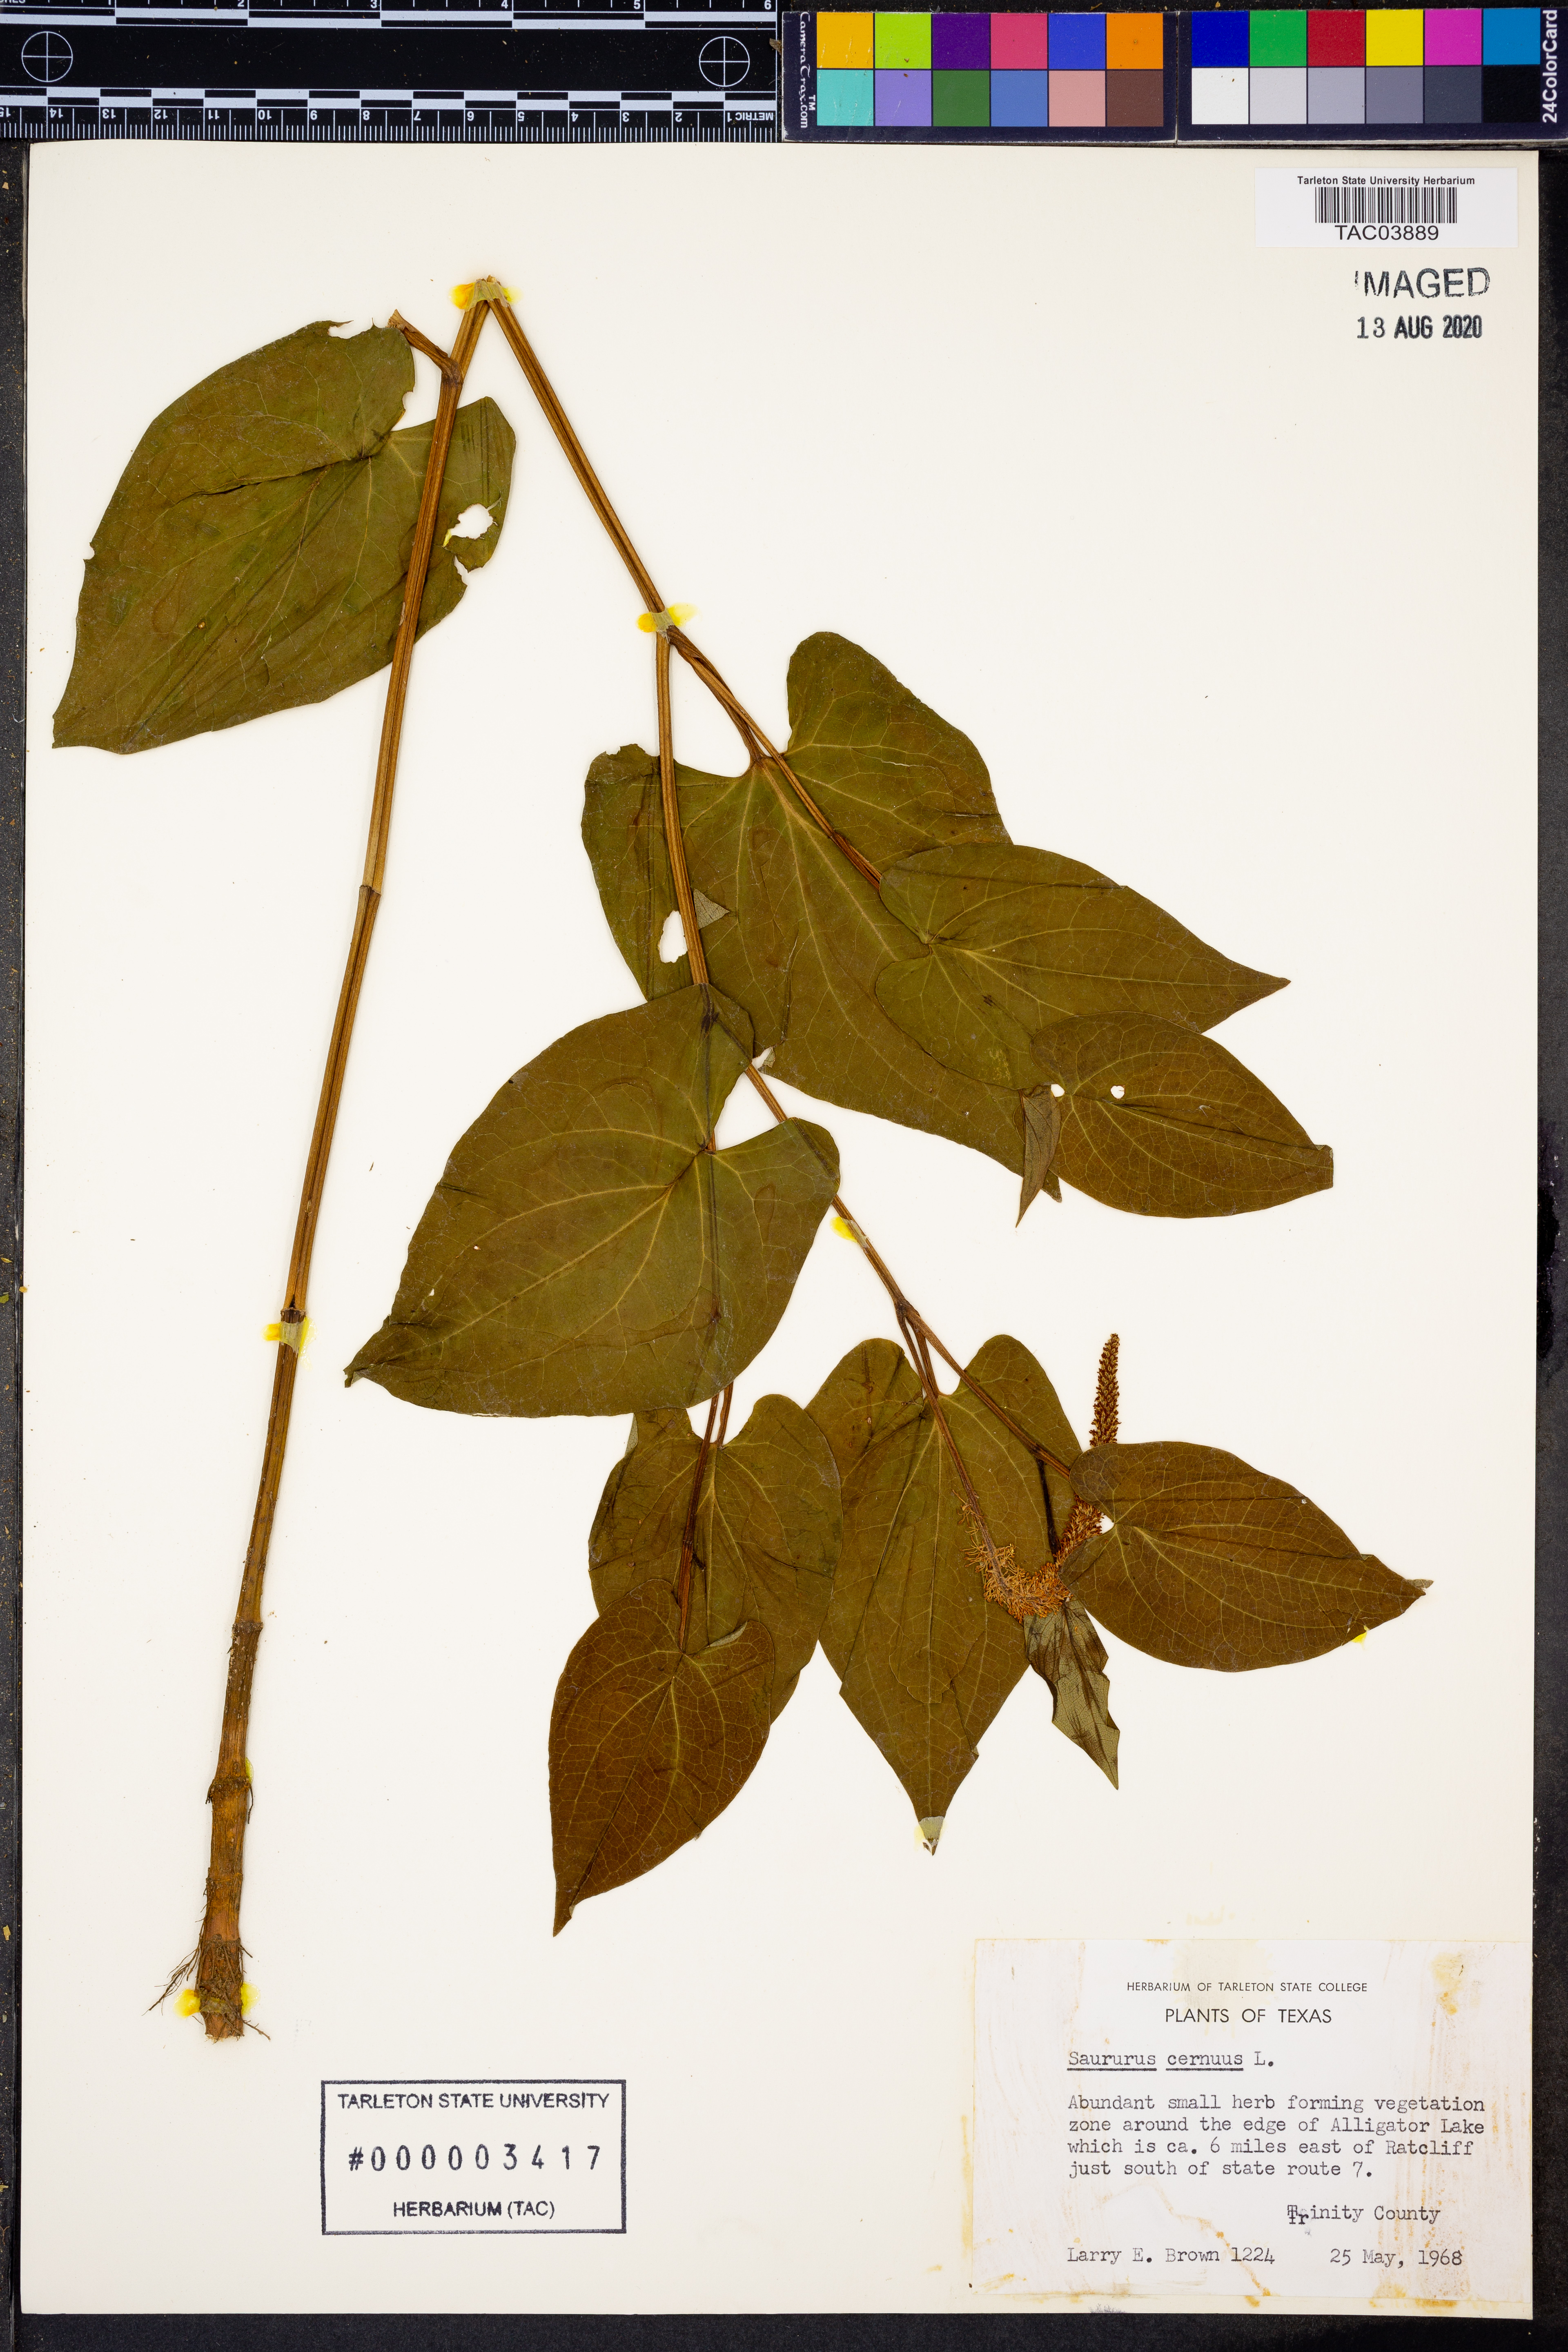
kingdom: Plantae
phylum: Tracheophyta
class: Magnoliopsida
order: Piperales
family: Saururaceae
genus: Saururus
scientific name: Saururus cernuus
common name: Lizard's-tail
